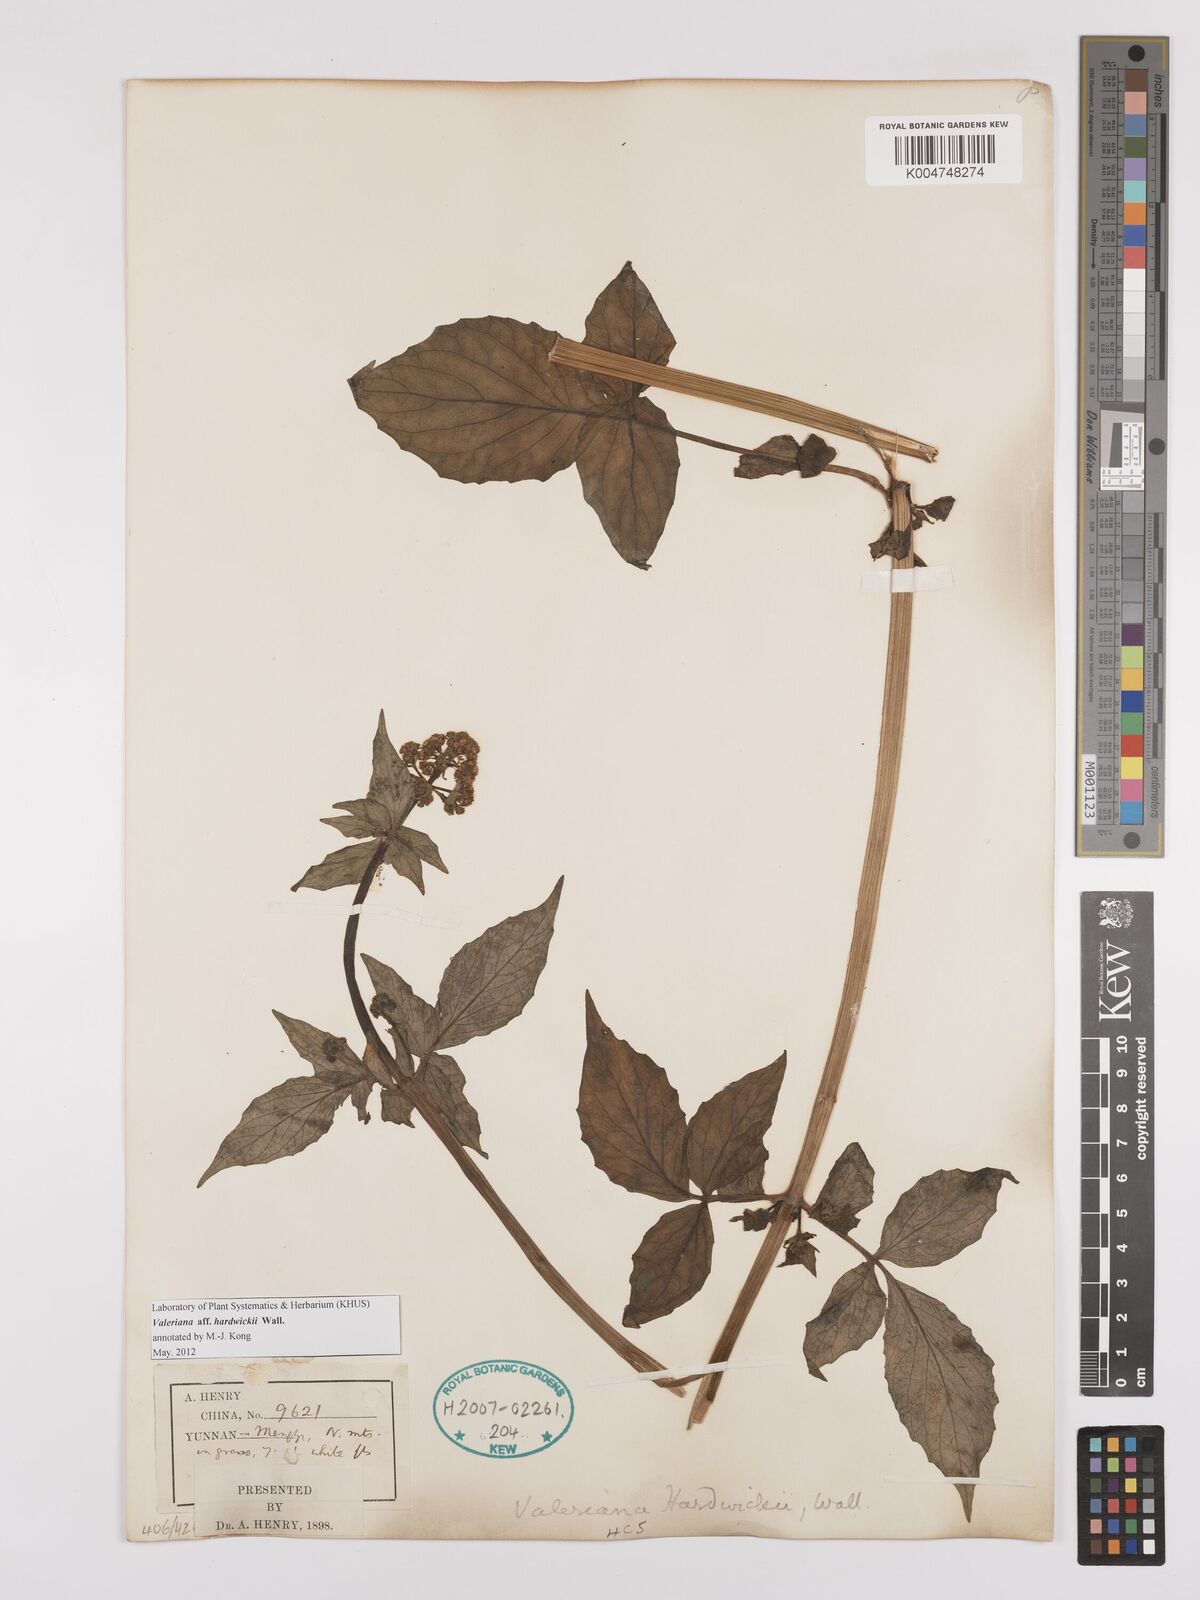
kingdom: Plantae
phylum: Tracheophyta
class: Magnoliopsida
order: Dipsacales
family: Caprifoliaceae
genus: Valeriana
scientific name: Valeriana hardwickei
